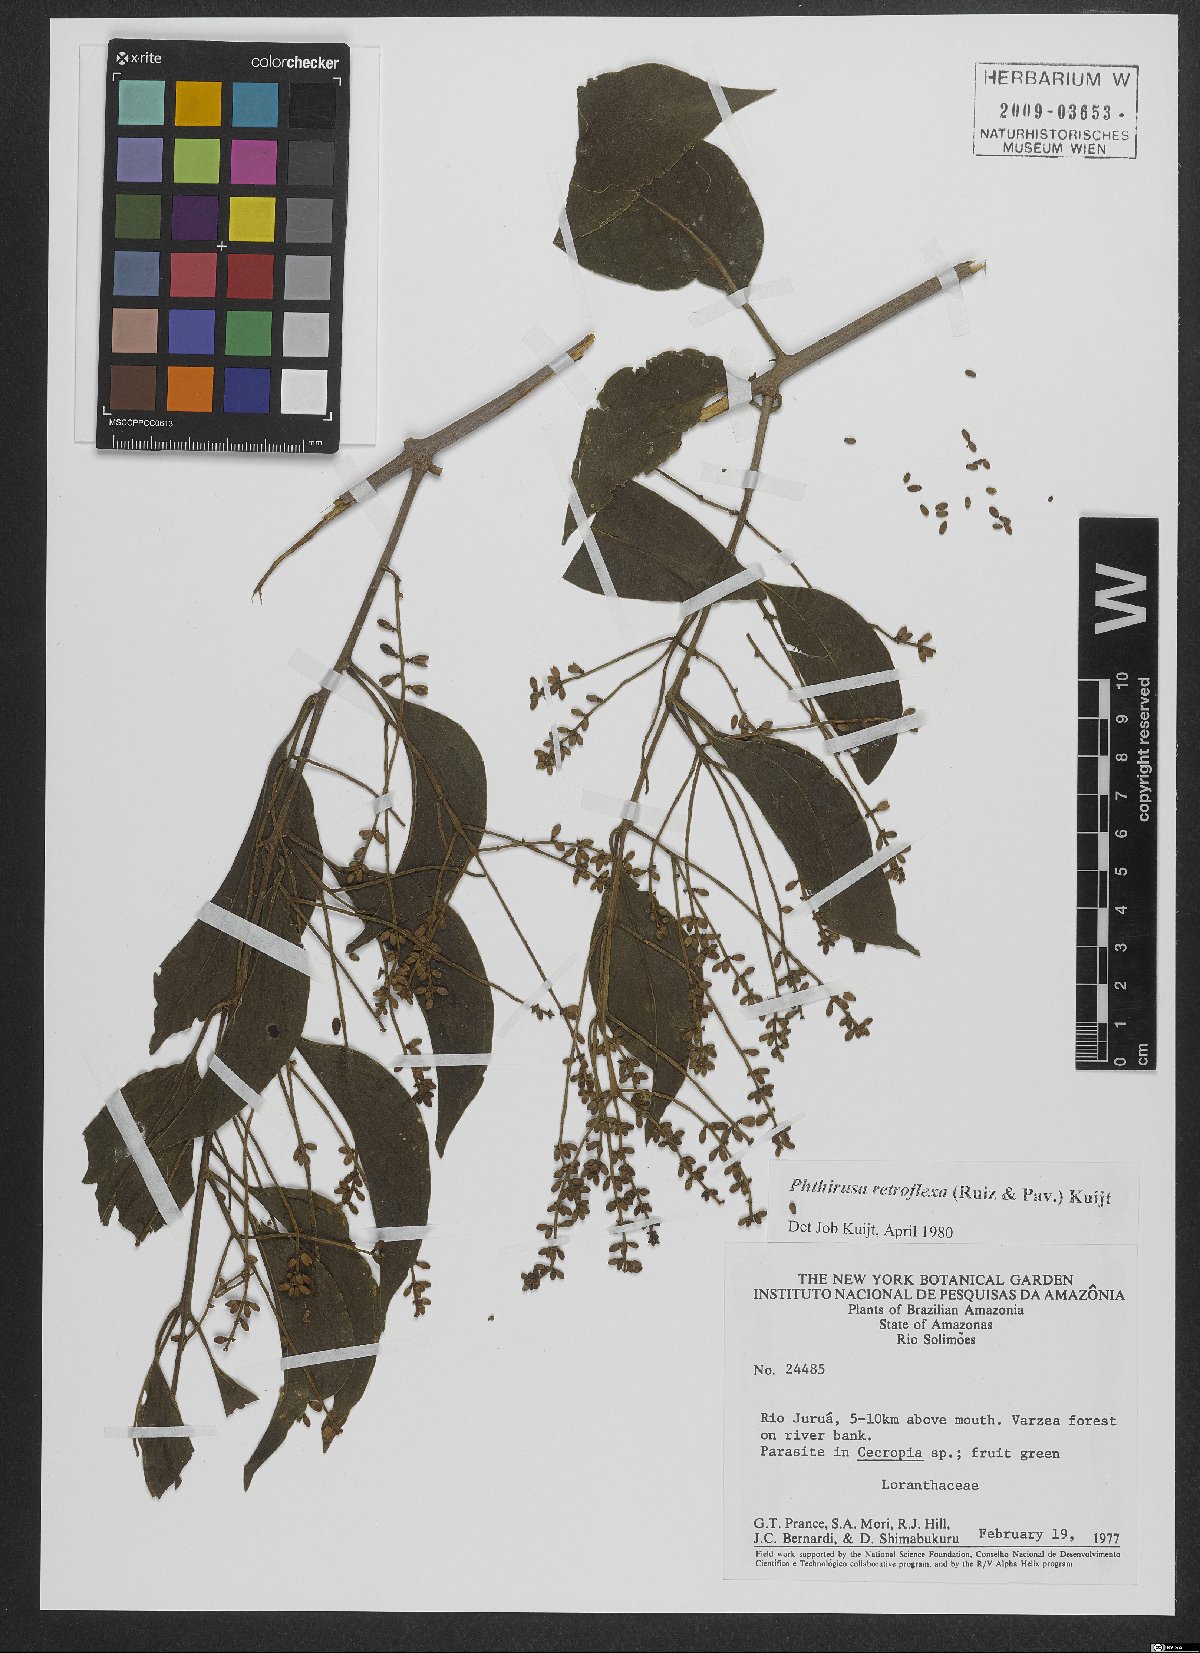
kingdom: Plantae
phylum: Tracheophyta
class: Magnoliopsida
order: Santalales
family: Loranthaceae
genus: Passovia
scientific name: Passovia pedunculata
